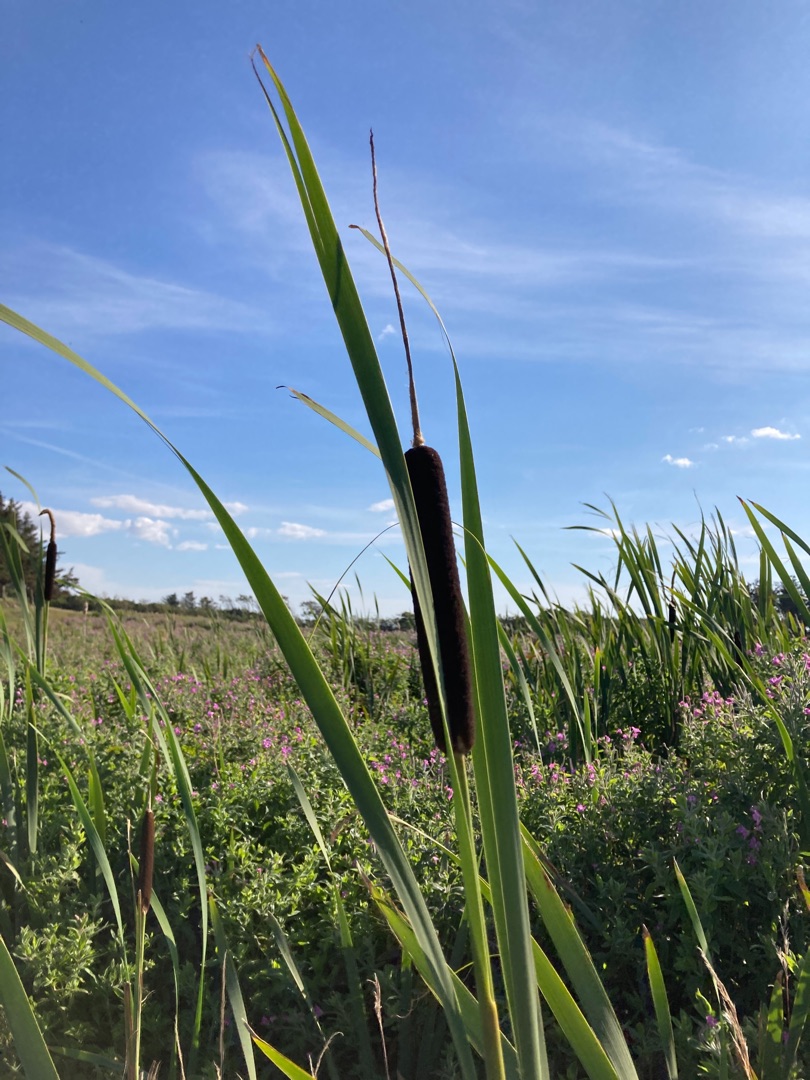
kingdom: Plantae
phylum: Tracheophyta
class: Liliopsida
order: Poales
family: Typhaceae
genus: Typha
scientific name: Typha latifolia
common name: Bredbladet dunhammer
